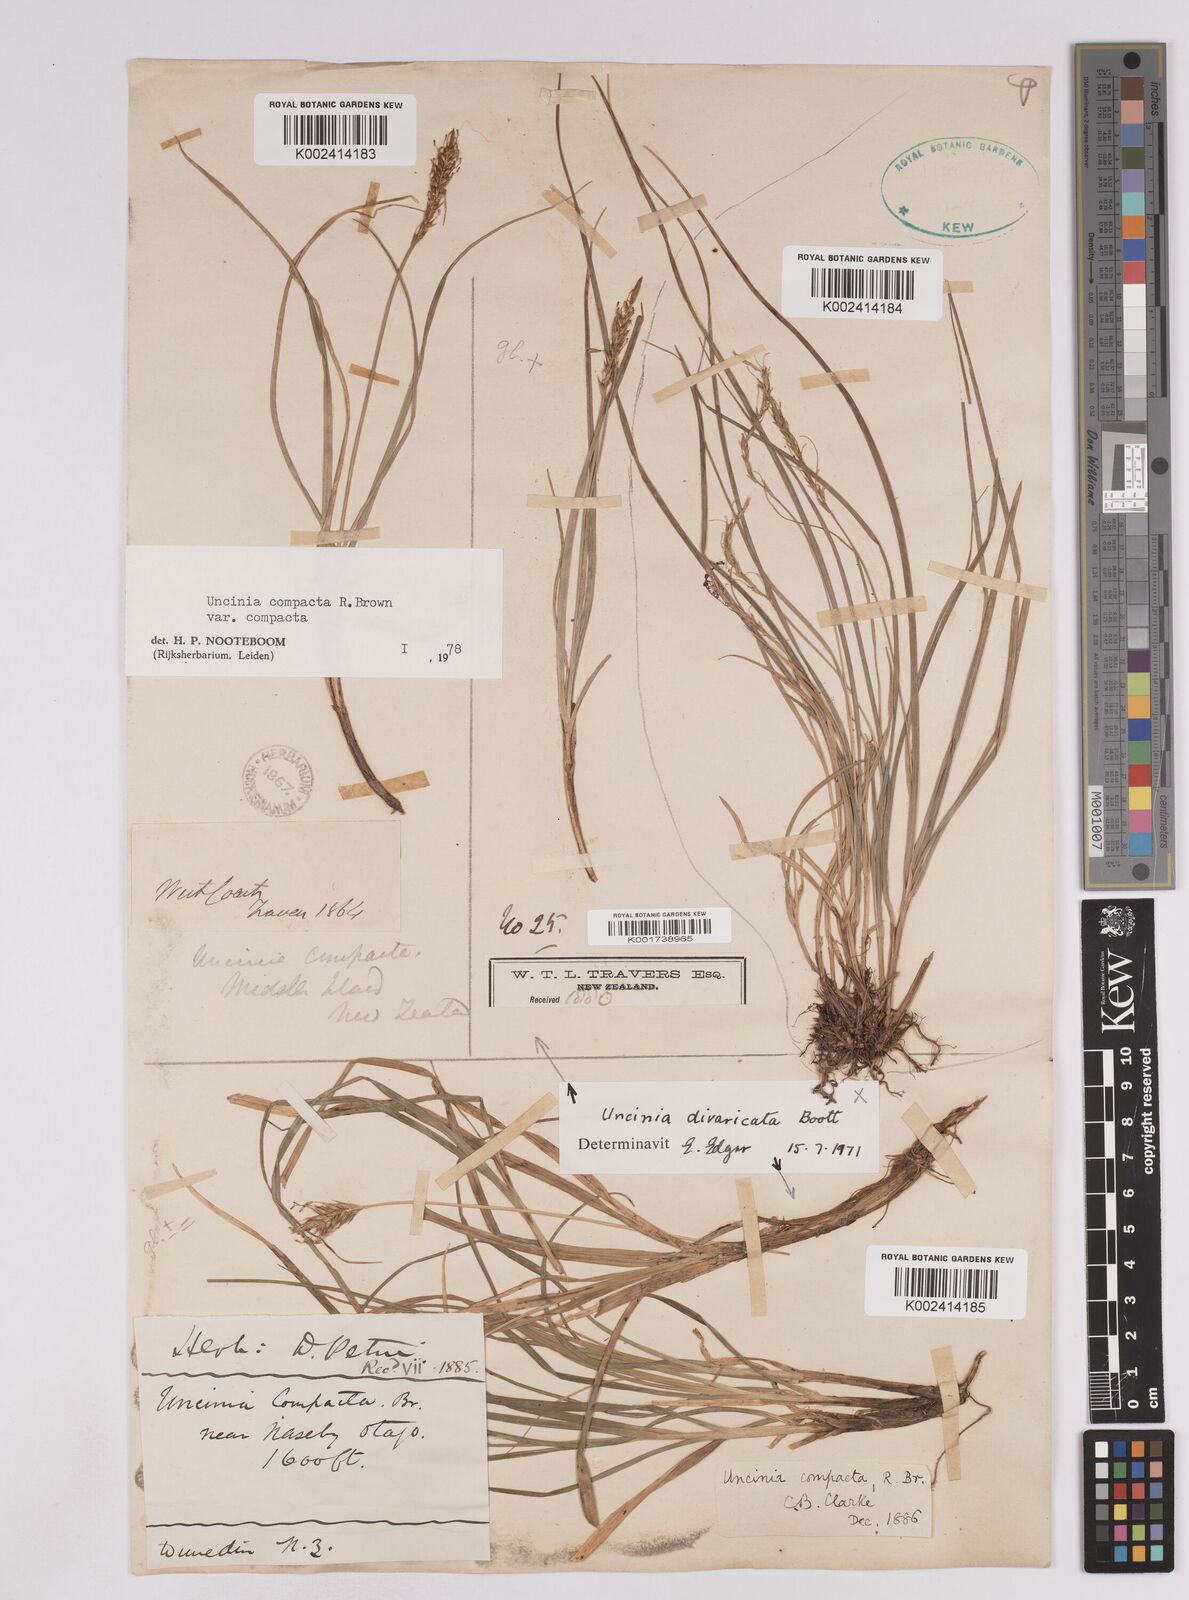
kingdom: Plantae
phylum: Tracheophyta
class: Liliopsida
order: Poales
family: Cyperaceae
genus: Carex
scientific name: Carex austrocompacta
